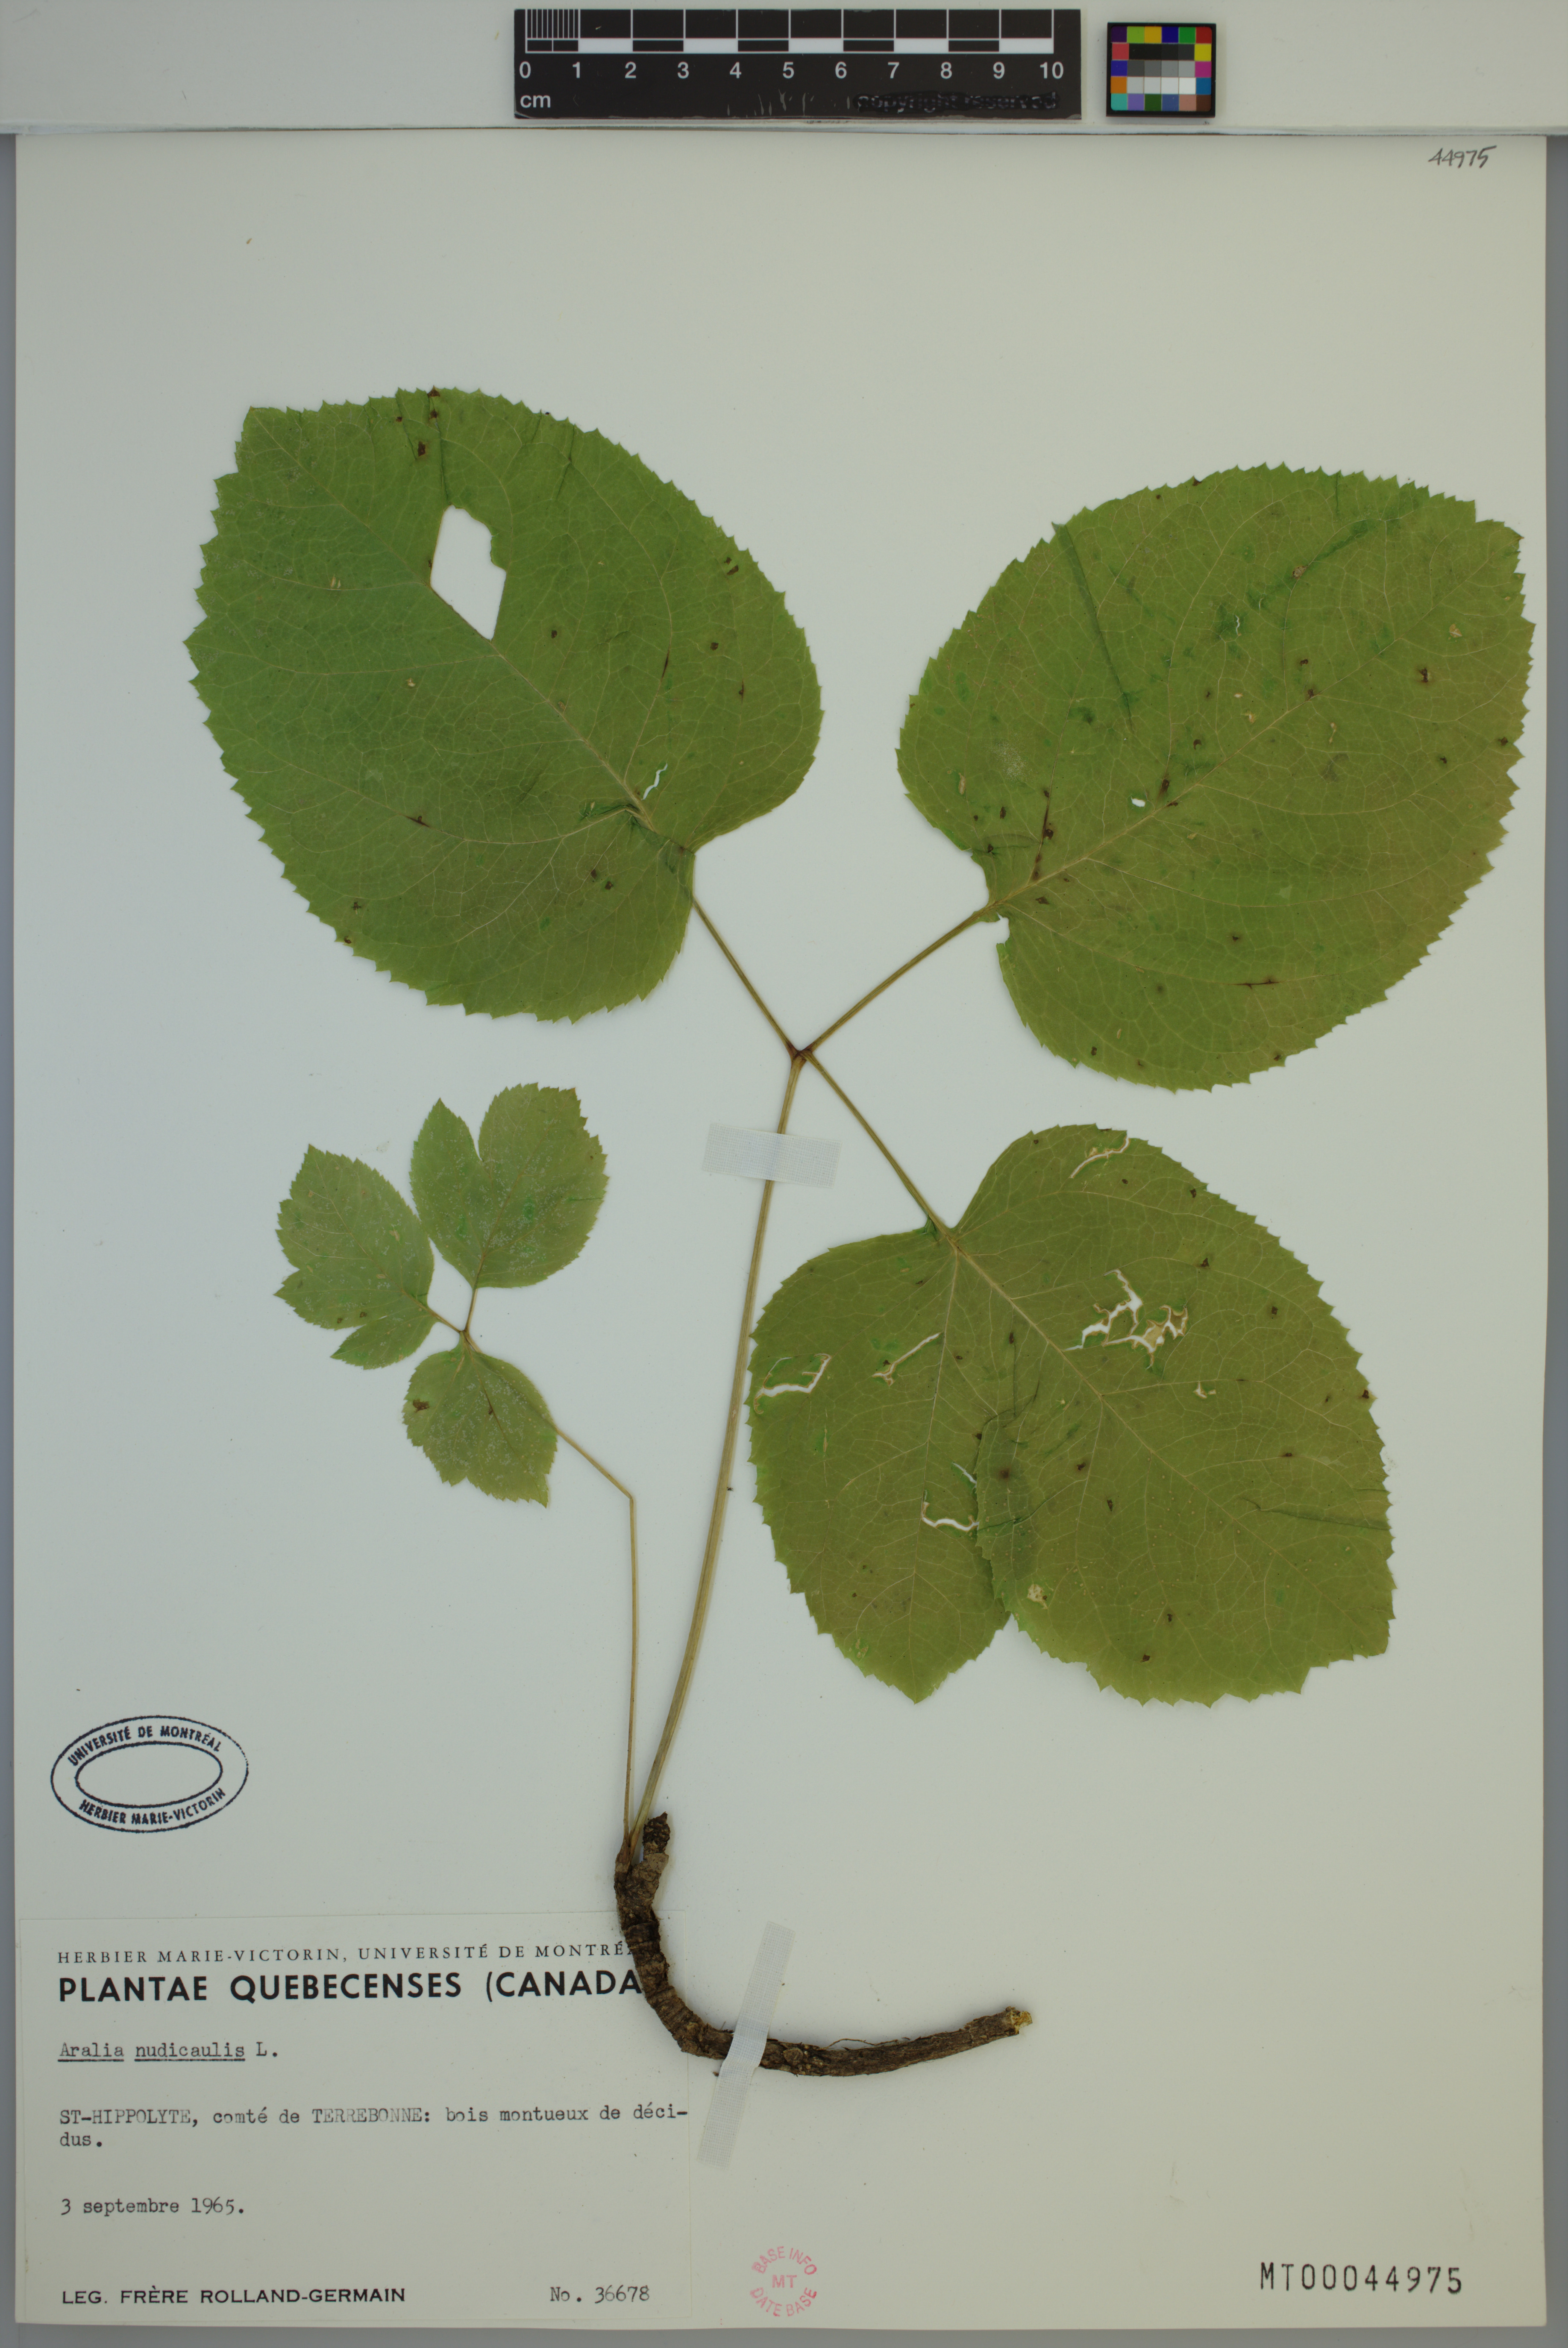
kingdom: Plantae
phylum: Tracheophyta
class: Magnoliopsida
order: Apiales
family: Araliaceae
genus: Aralia
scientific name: Aralia nudicaulis
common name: Wild sarsaparilla
